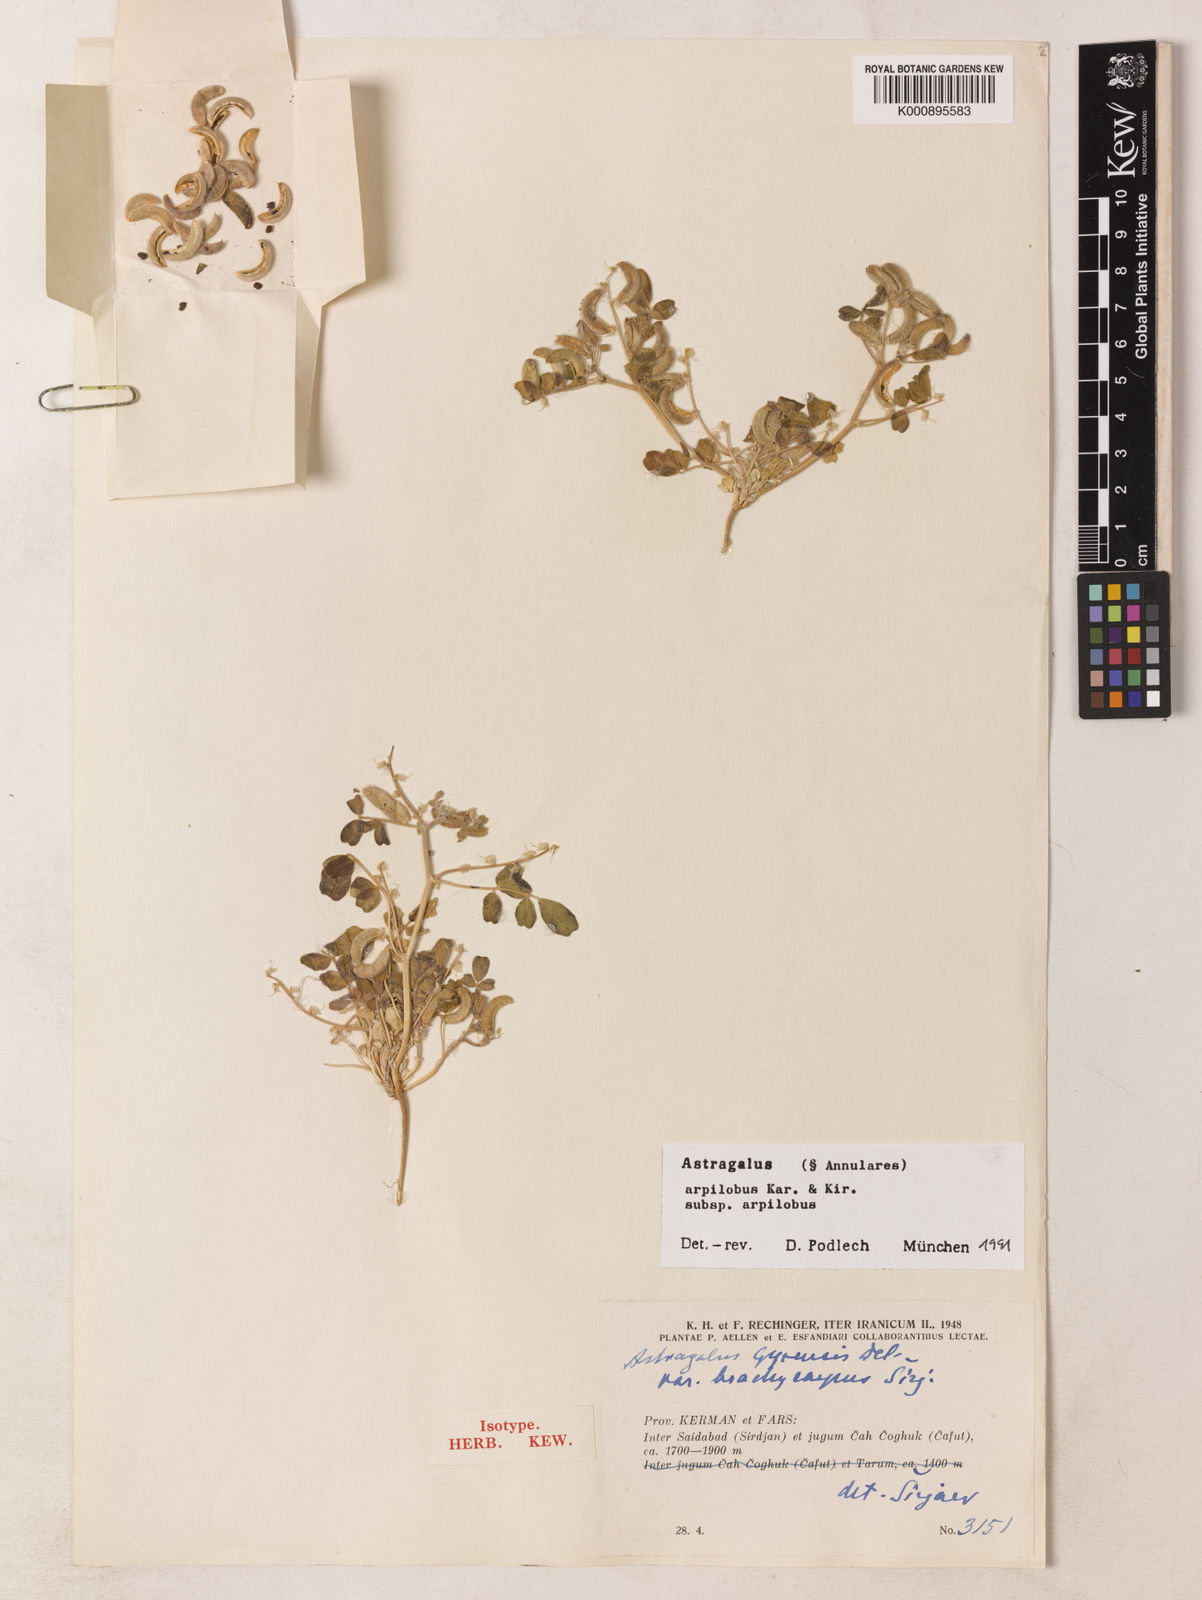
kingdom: Plantae
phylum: Tracheophyta
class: Magnoliopsida
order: Fabales
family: Fabaceae
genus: Astragalus
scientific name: Astragalus annularis
